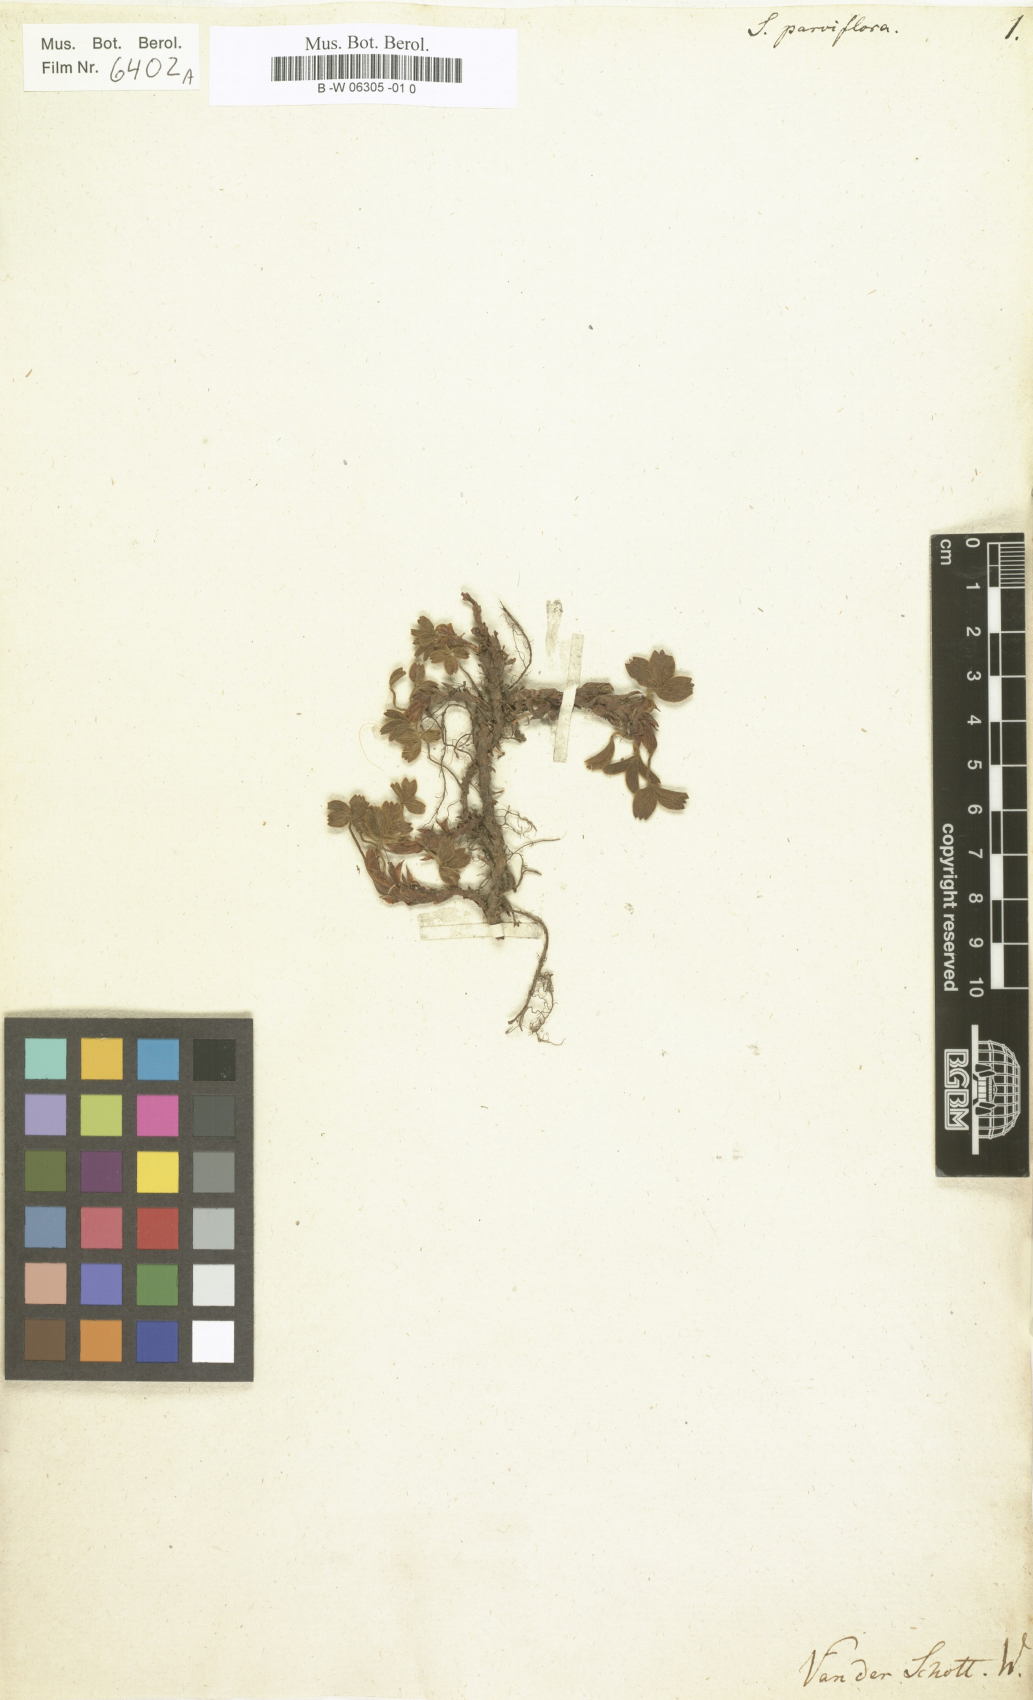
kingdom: Plantae
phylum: Tracheophyta
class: Magnoliopsida
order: Rosales
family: Rosaceae
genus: Sibbaldia
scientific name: Sibbaldia parviflora
